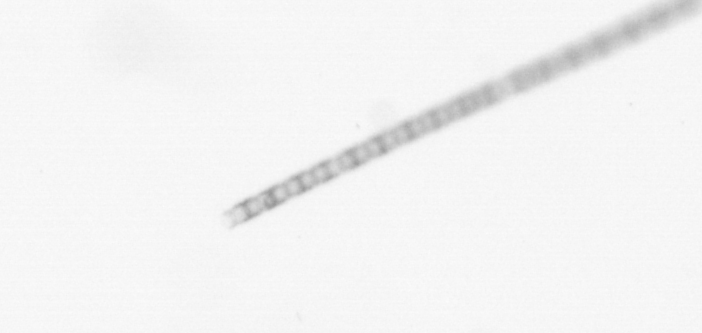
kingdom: Chromista
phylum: Ochrophyta
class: Bacillariophyceae
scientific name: Bacillariophyceae
